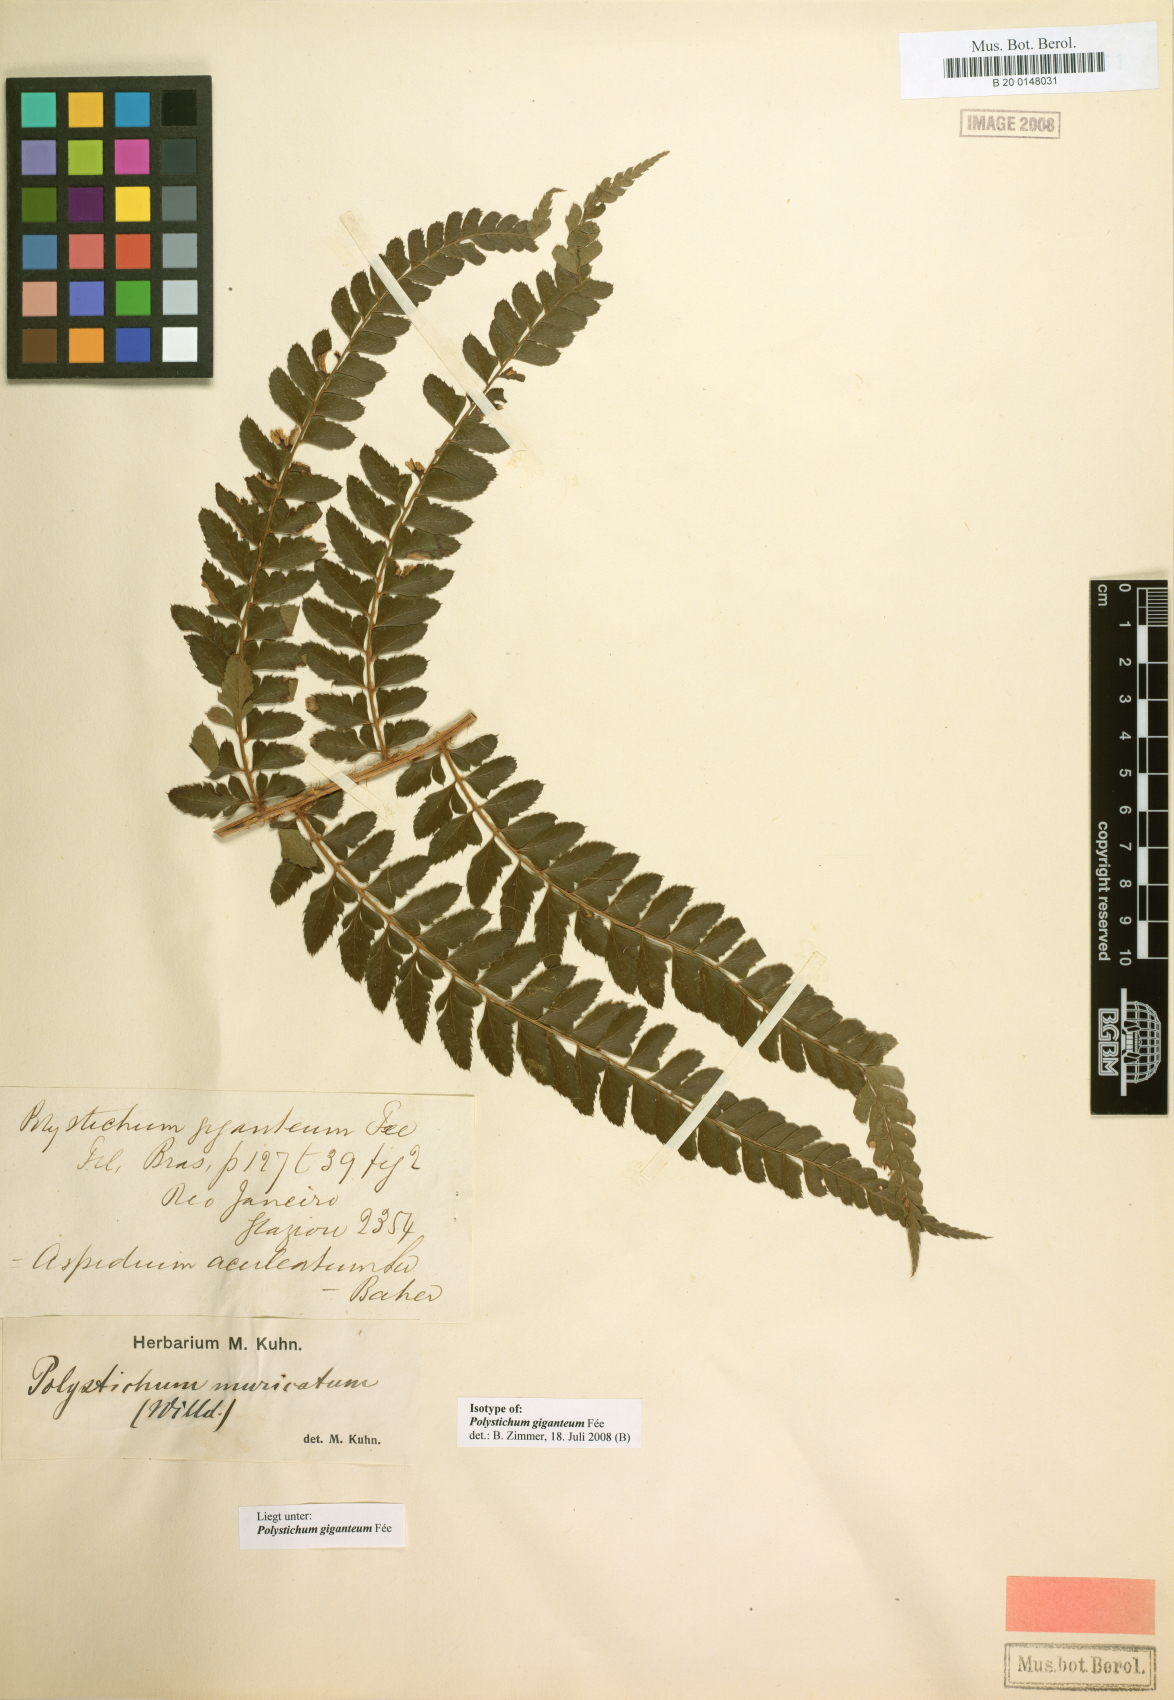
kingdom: Plantae
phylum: Tracheophyta
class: Polypodiopsida
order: Polypodiales
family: Dryopteridaceae
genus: Polystichum
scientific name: Polystichum platylepis
